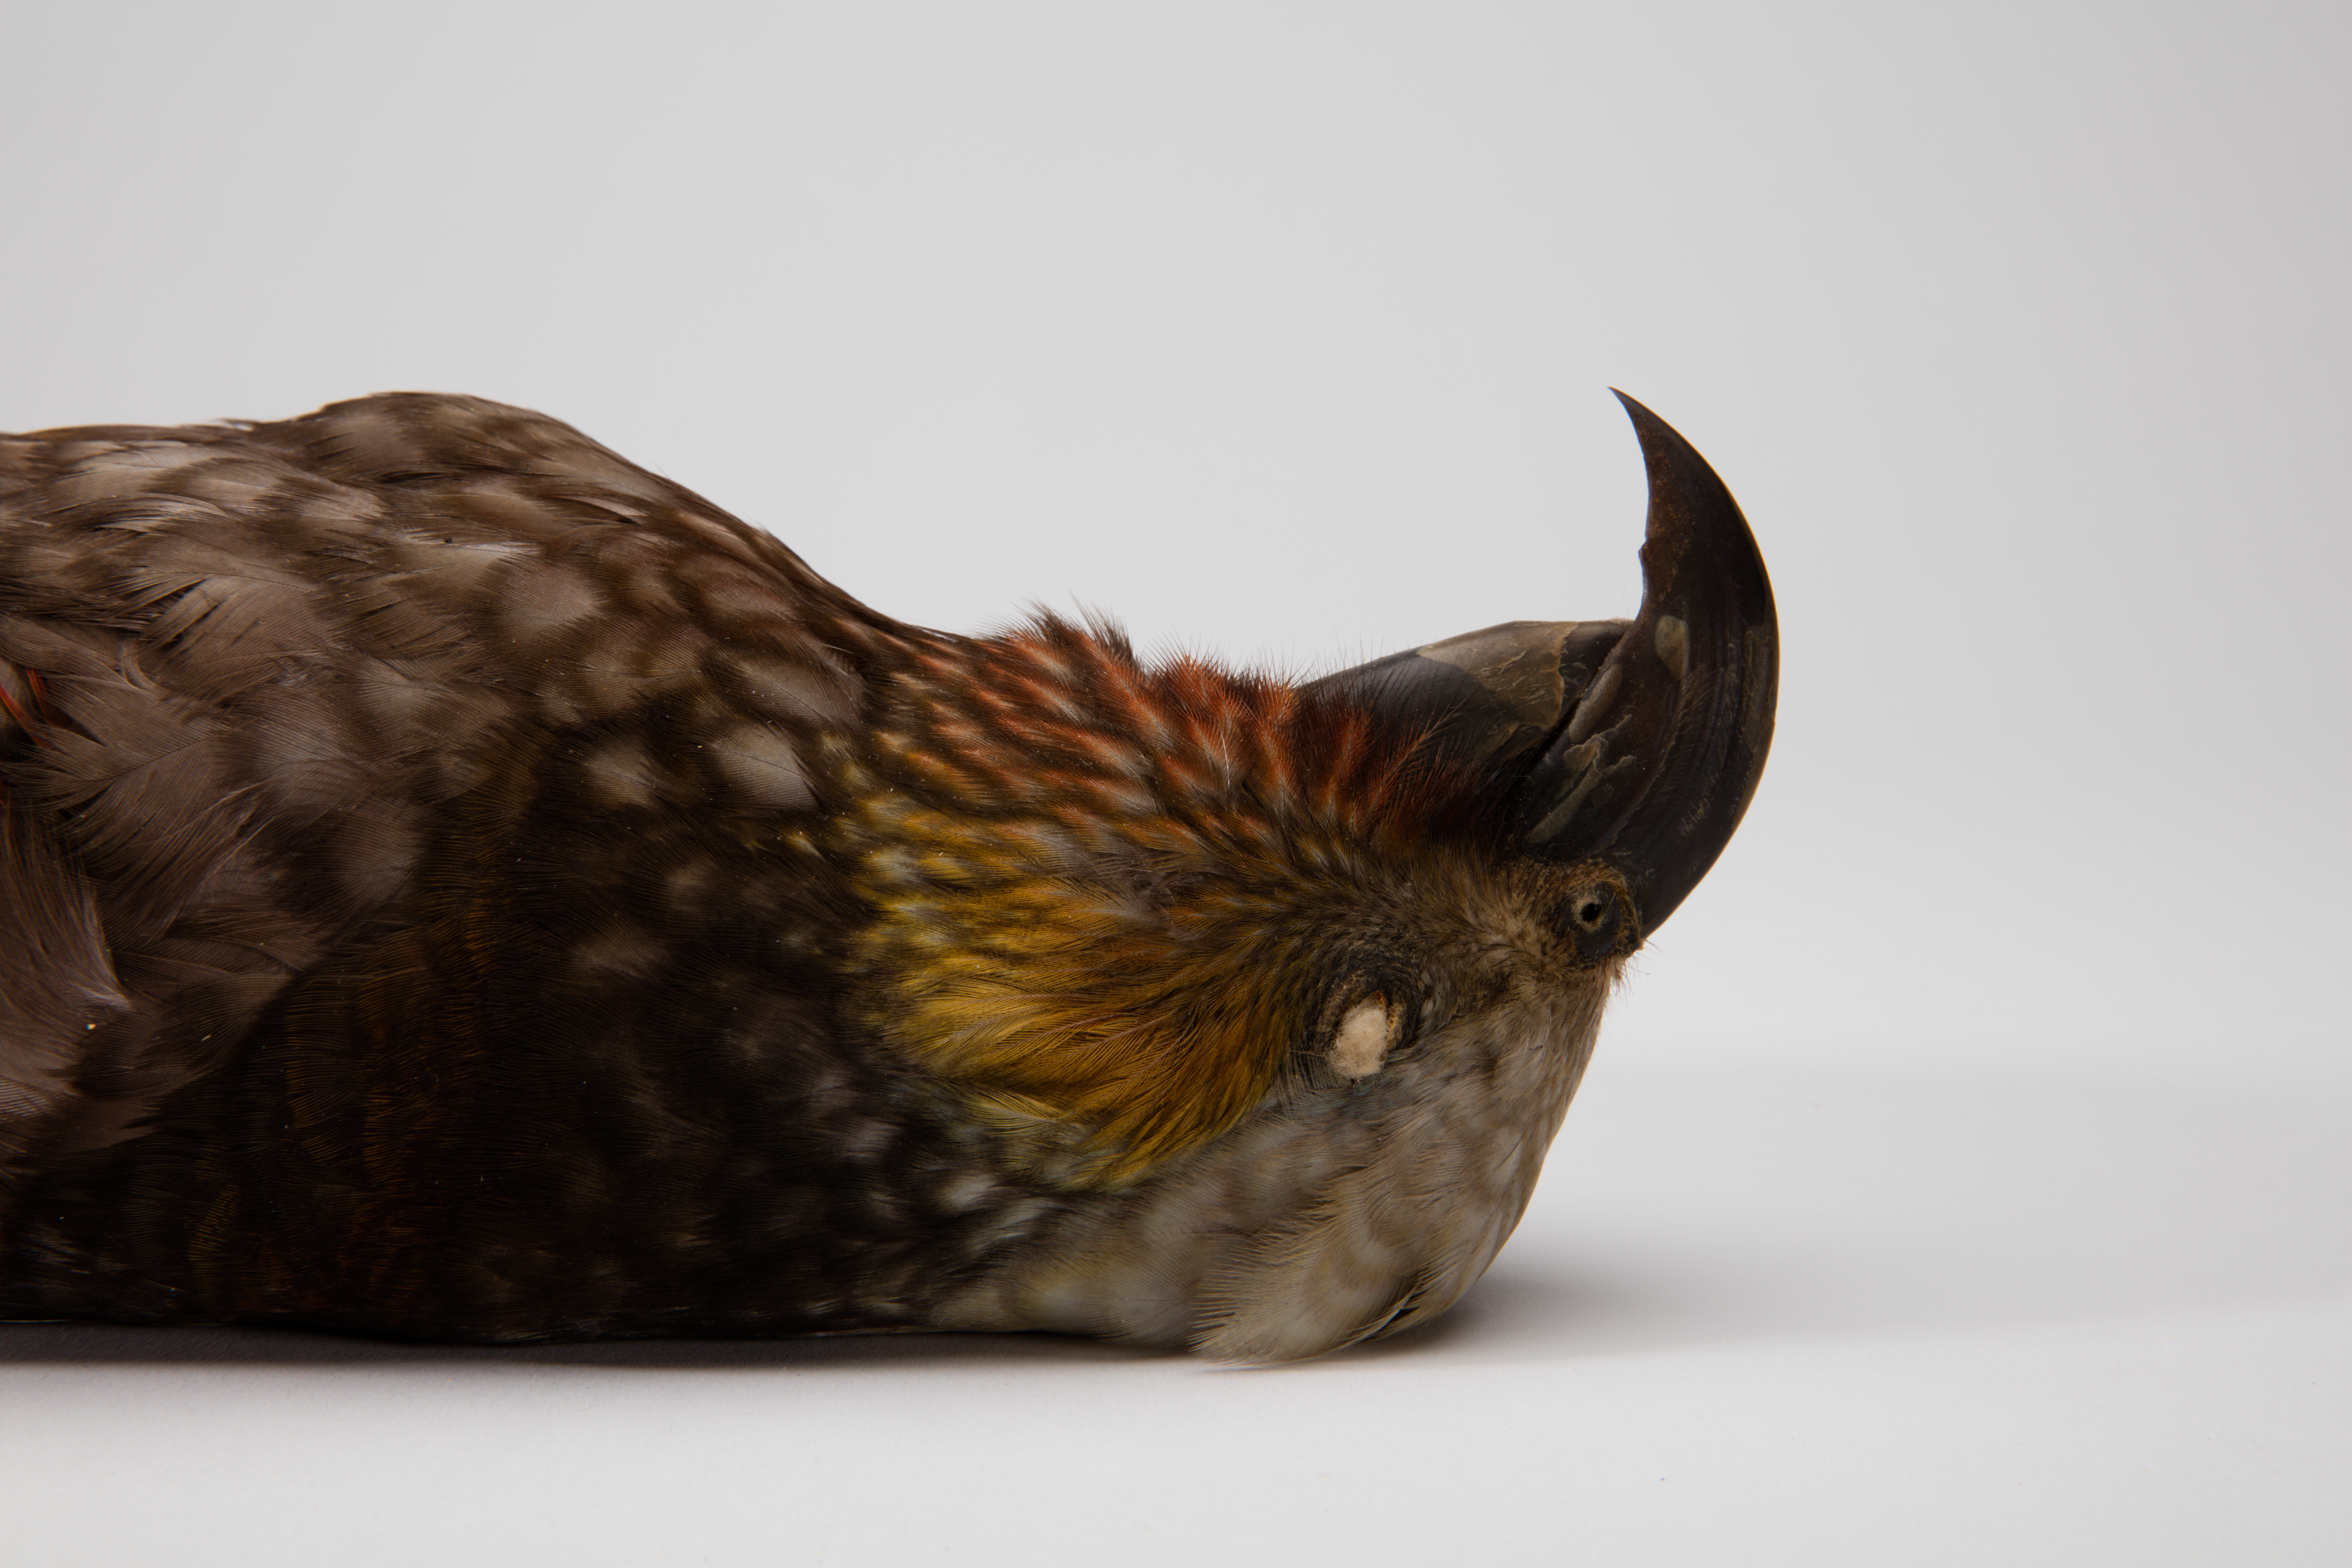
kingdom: Animalia
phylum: Chordata
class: Aves
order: Psittaciformes
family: Psittacidae
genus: Nestor
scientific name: Nestor meridionalis
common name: New zealand kaka
